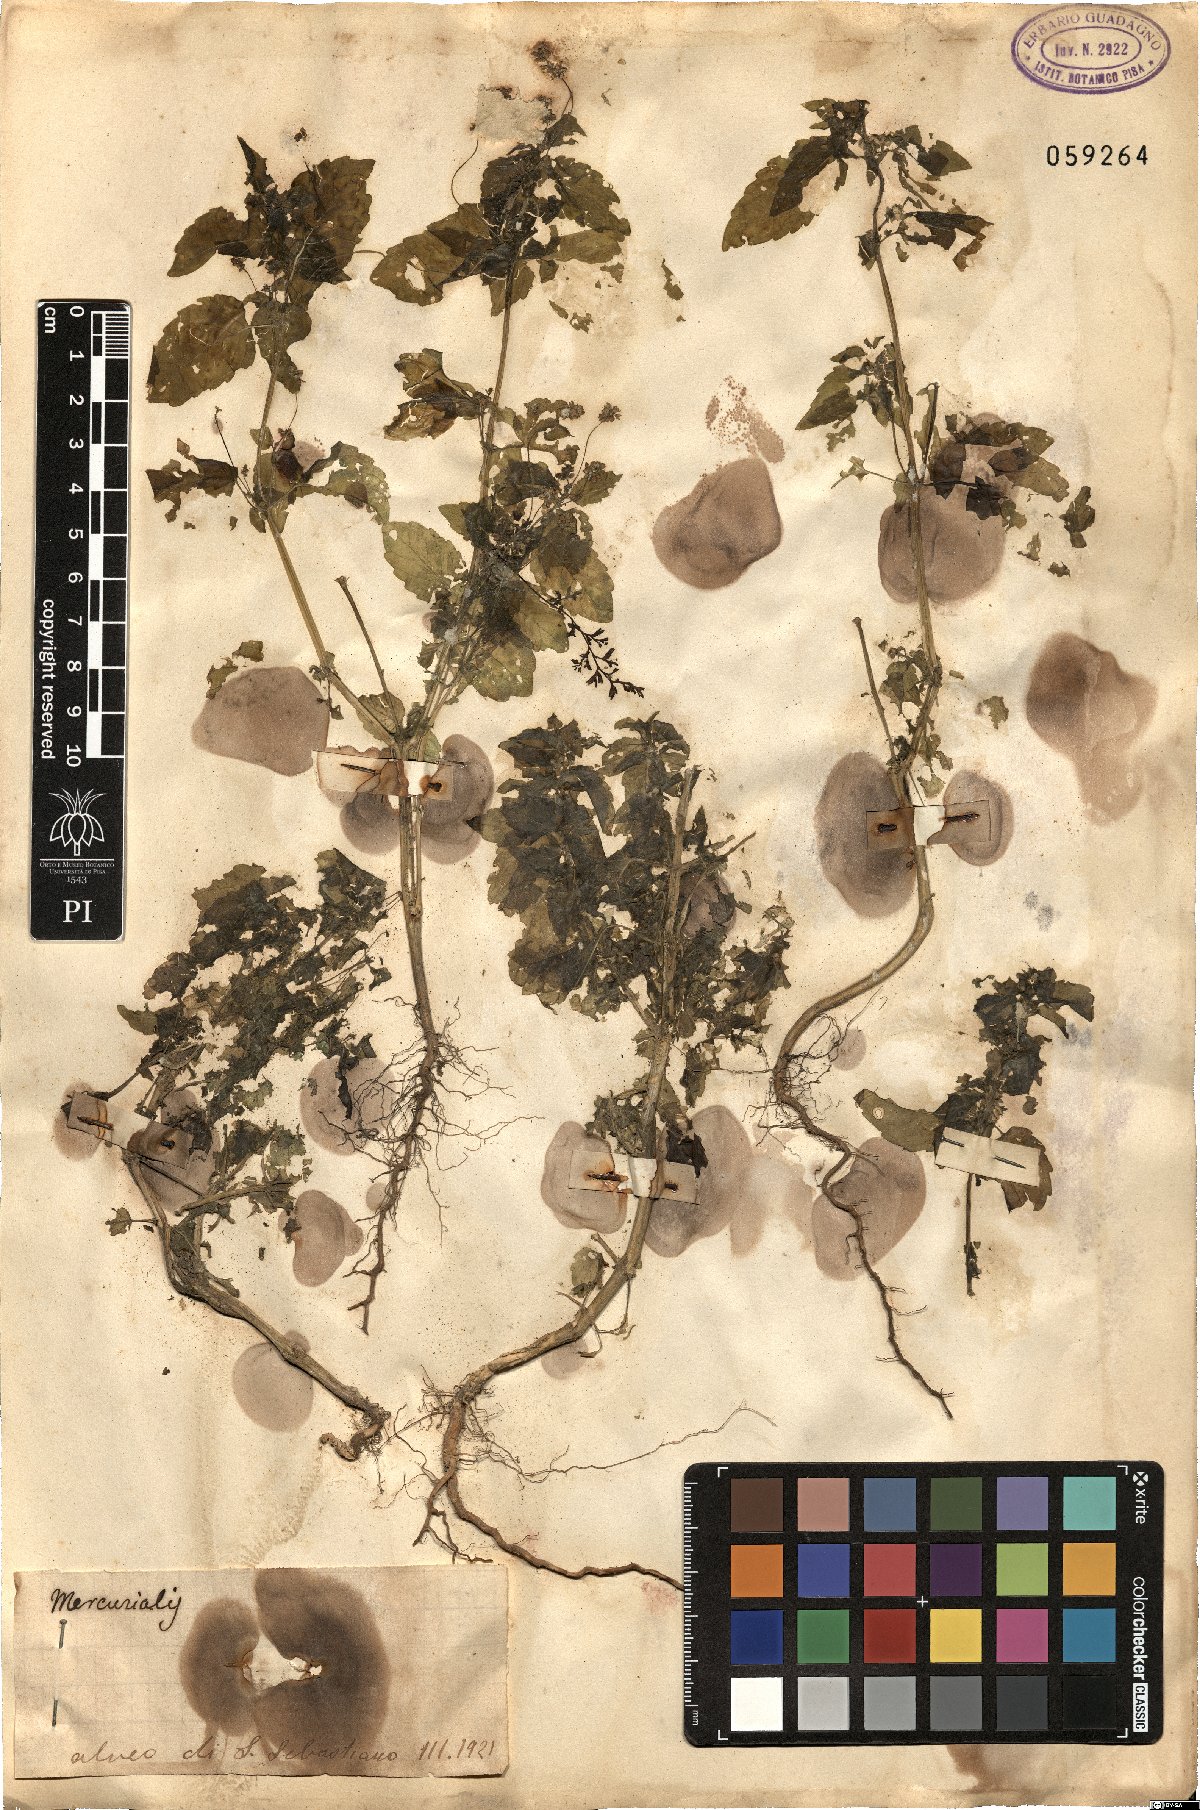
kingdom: Plantae
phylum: Tracheophyta
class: Magnoliopsida
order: Malpighiales
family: Euphorbiaceae
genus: Mercurialis
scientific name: Mercurialis
